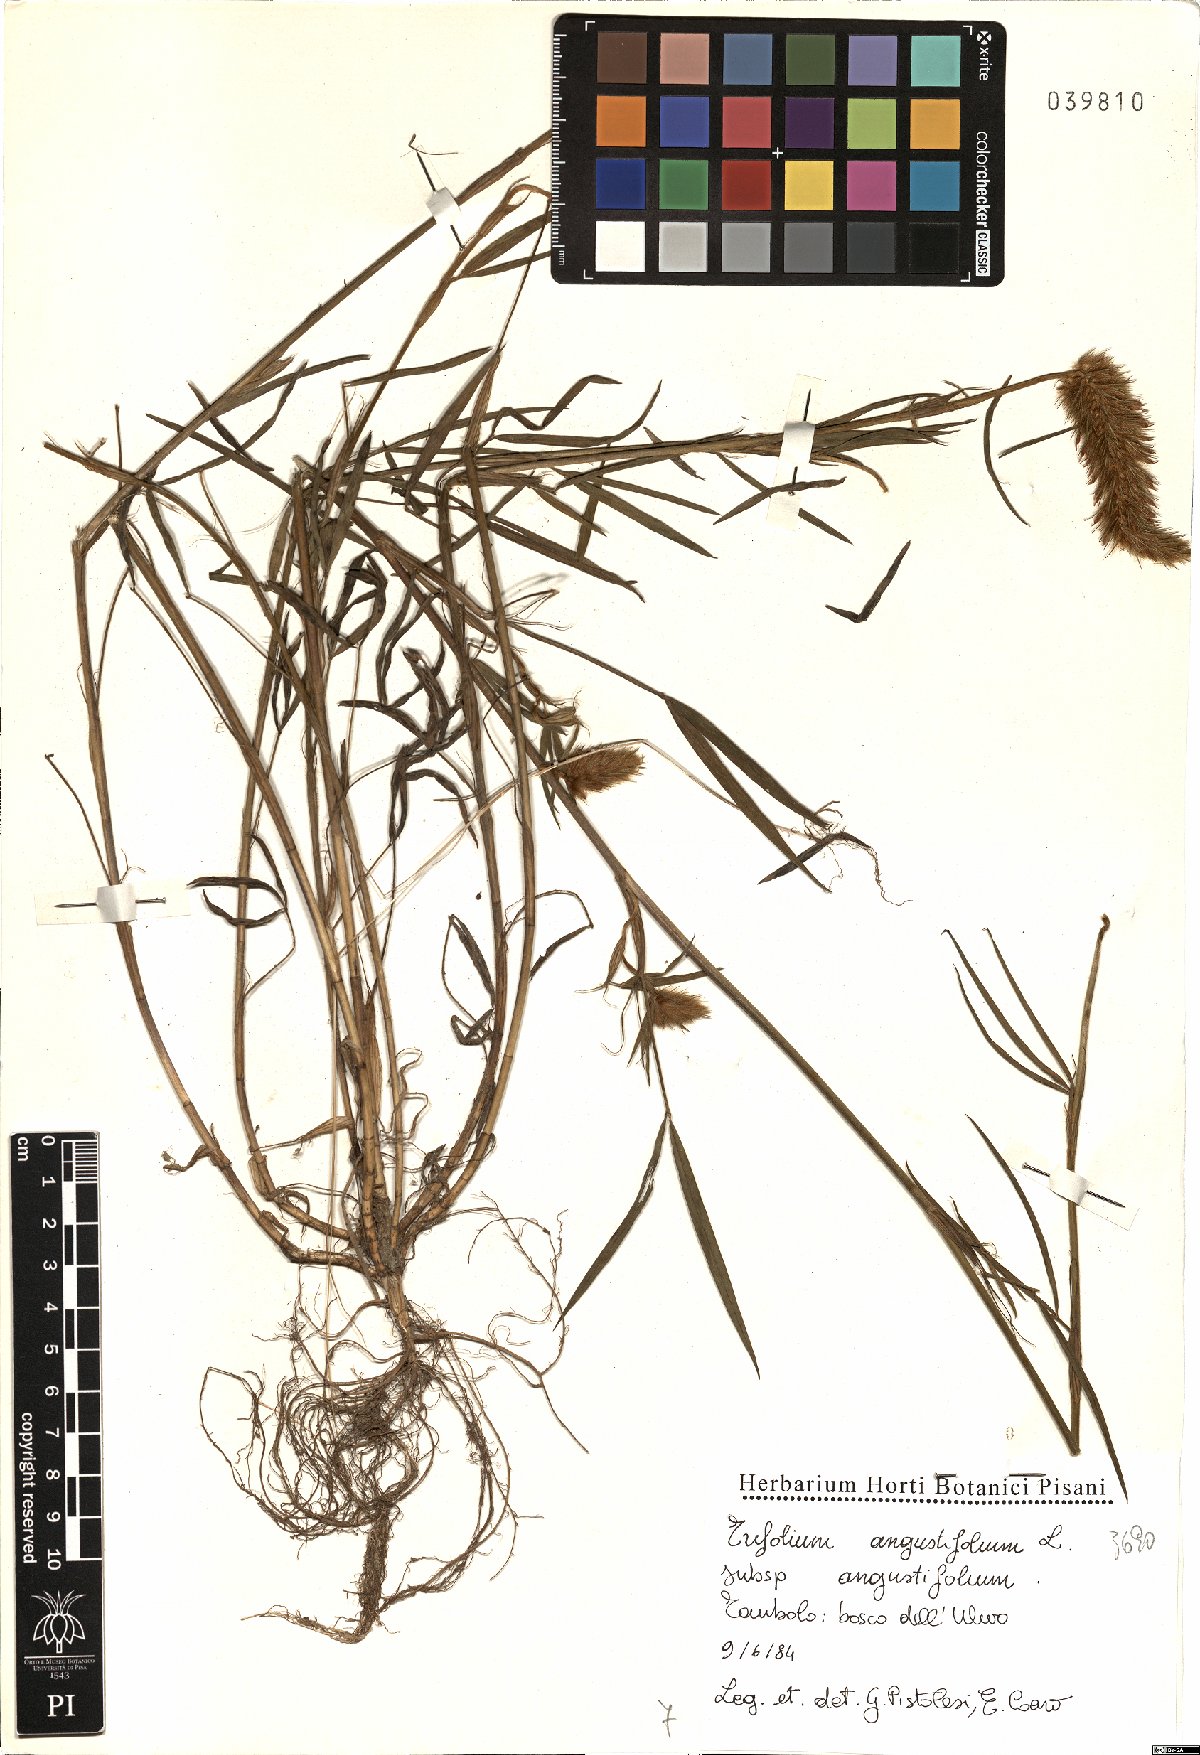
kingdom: Plantae
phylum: Tracheophyta
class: Magnoliopsida
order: Fabales
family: Fabaceae
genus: Trifolium
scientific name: Trifolium angustifolium
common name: Narrow clover
